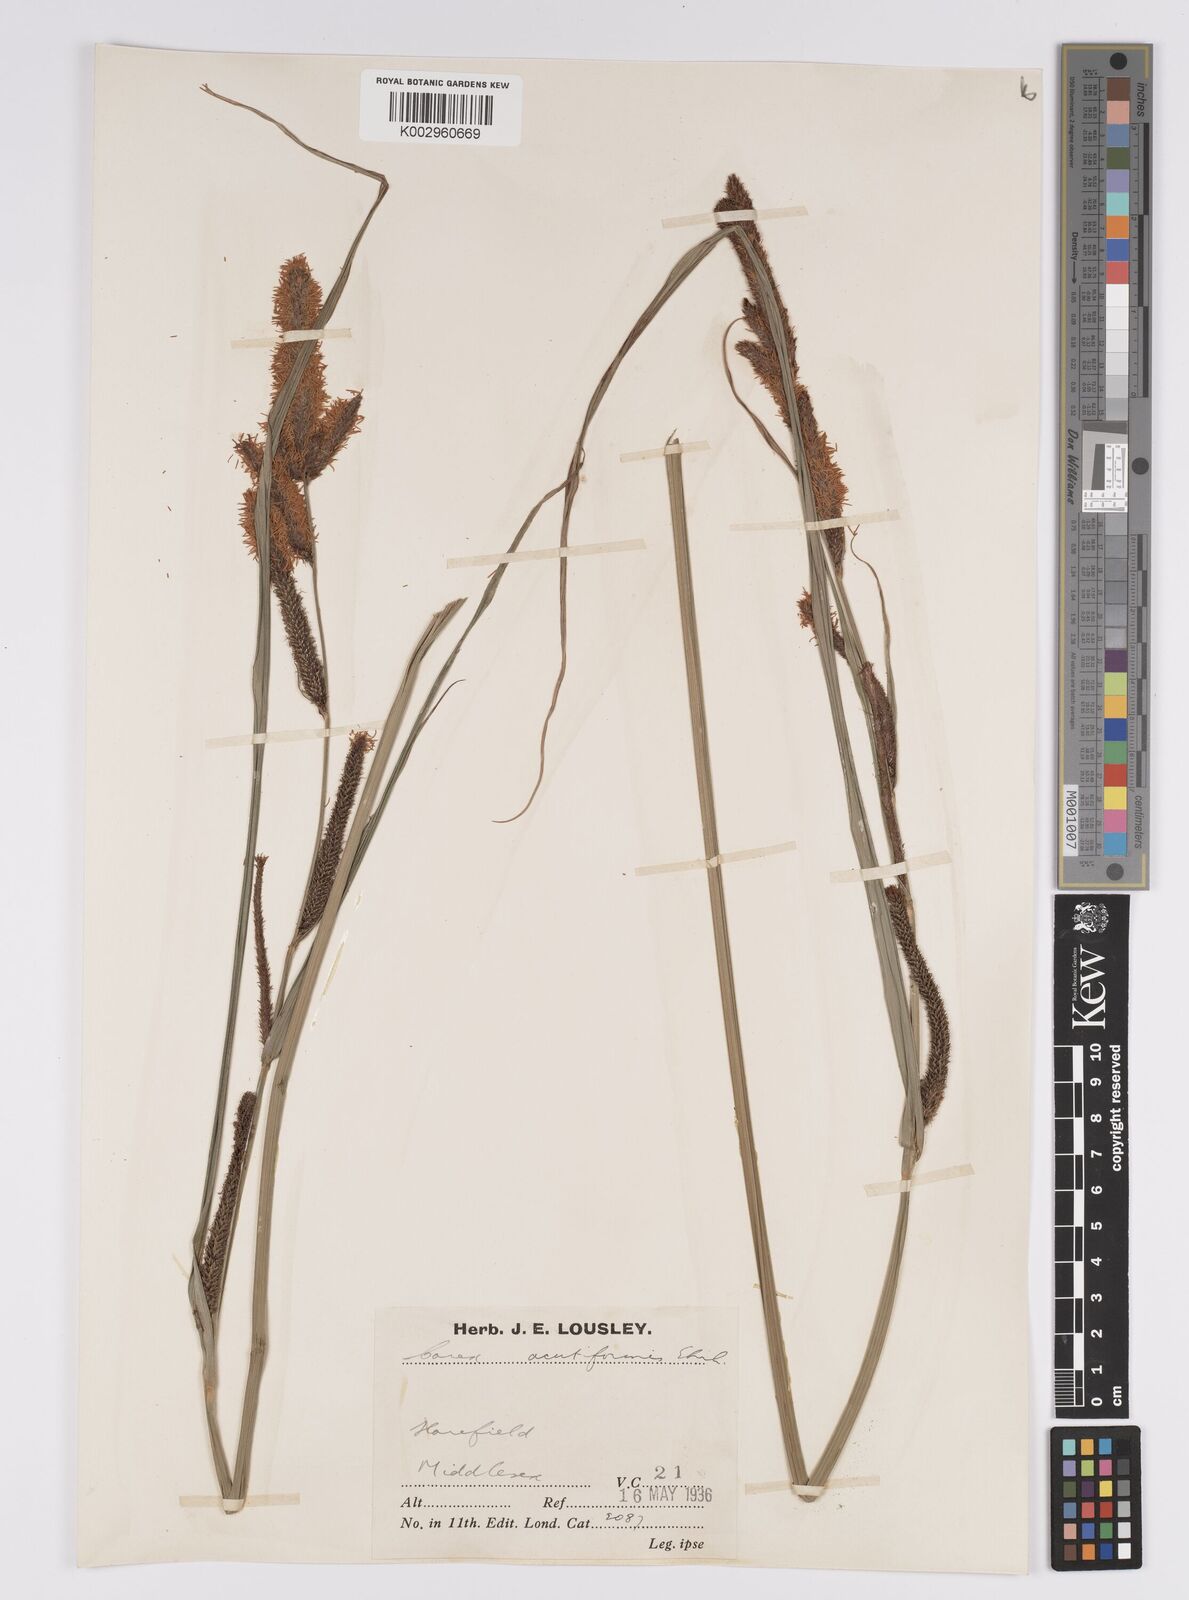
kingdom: Plantae
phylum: Tracheophyta
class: Liliopsida
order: Poales
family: Cyperaceae
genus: Carex
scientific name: Carex acutiformis
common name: Lesser pond-sedge
